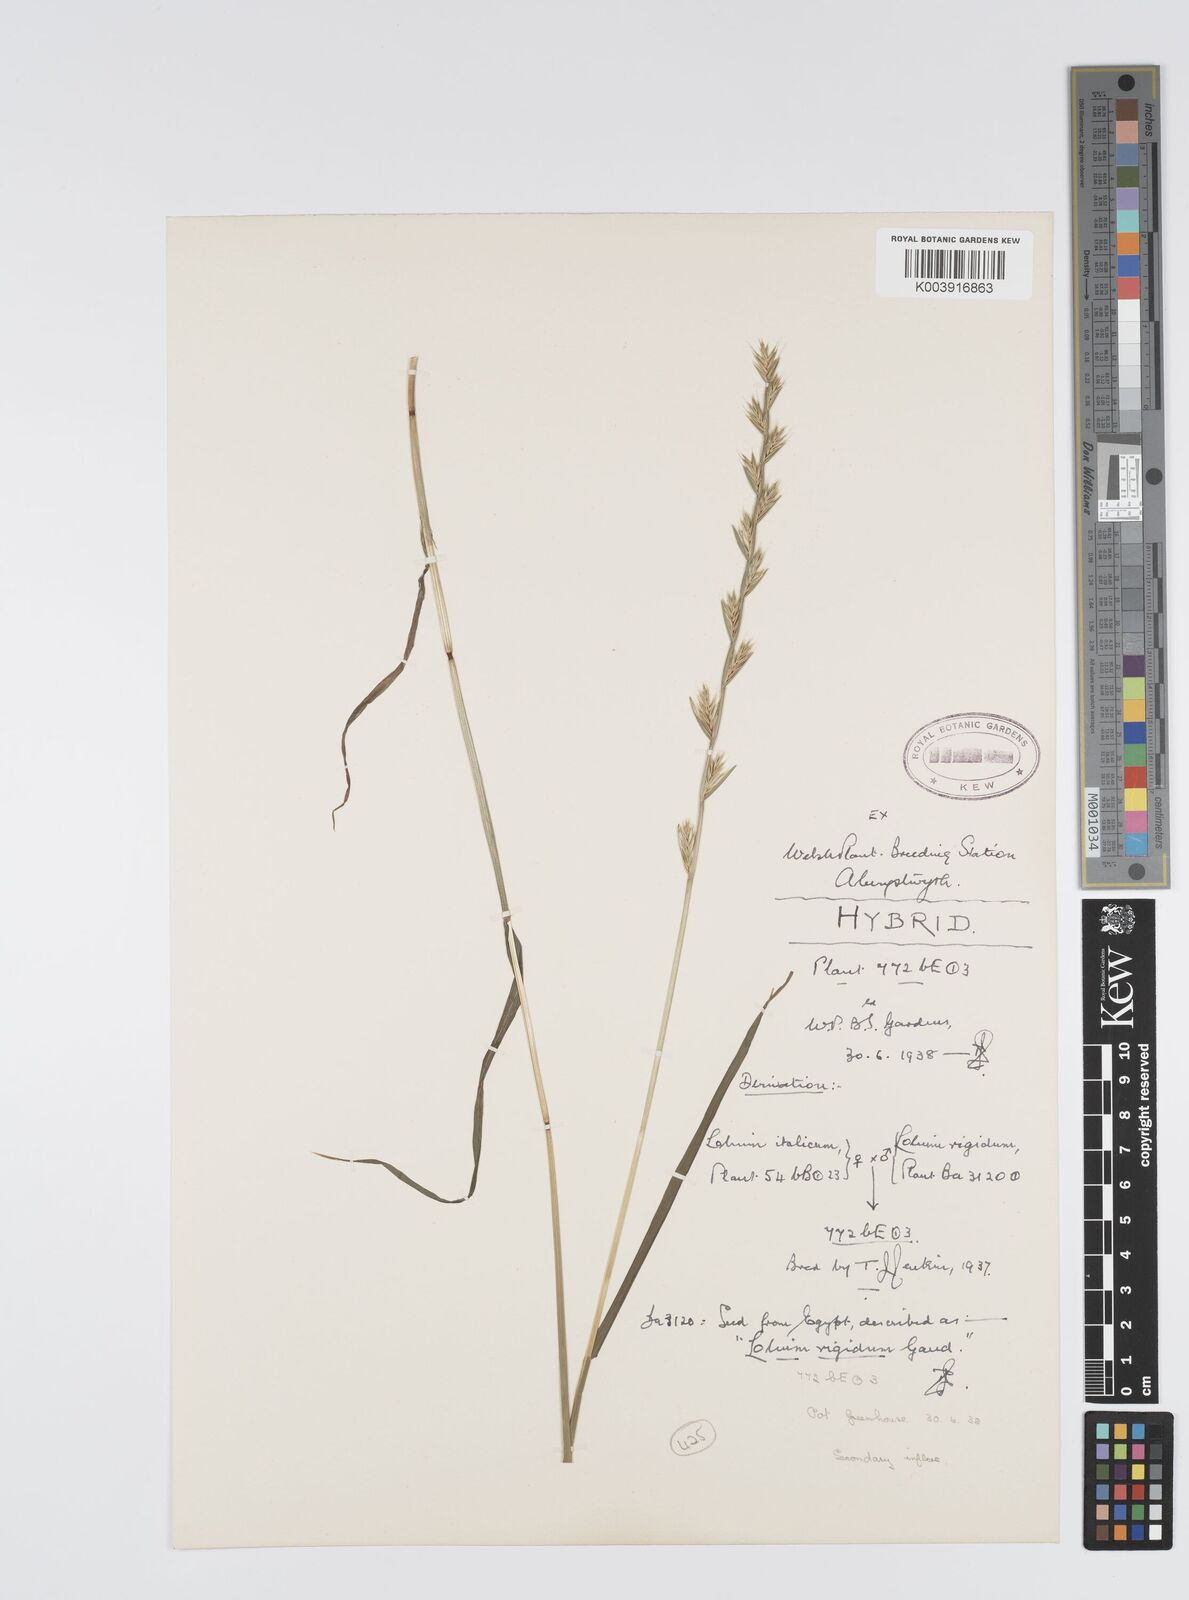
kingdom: Plantae
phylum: Tracheophyta
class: Liliopsida
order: Poales
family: Poaceae
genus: Lolium
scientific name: Lolium multiflorum
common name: Annual ryegrass
